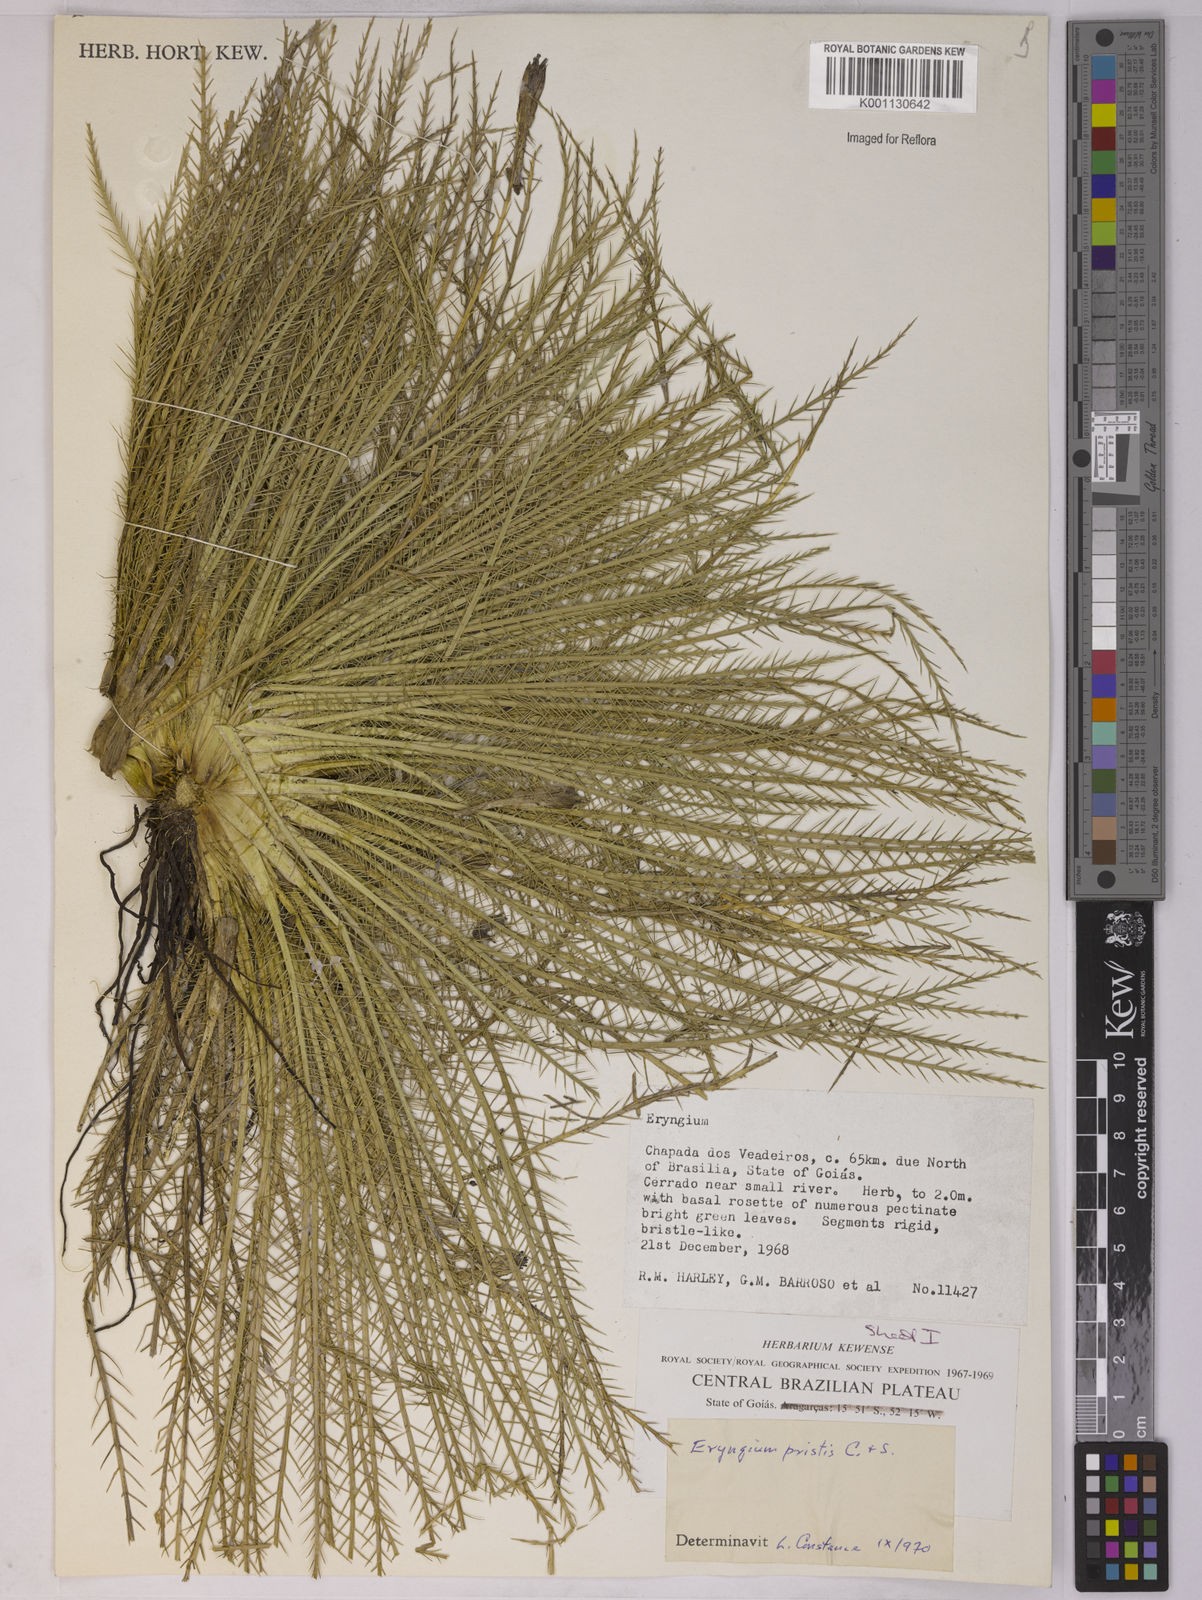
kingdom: Plantae
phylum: Tracheophyta
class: Magnoliopsida
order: Apiales
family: Apiaceae
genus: Eryngium
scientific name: Eryngium pristis
